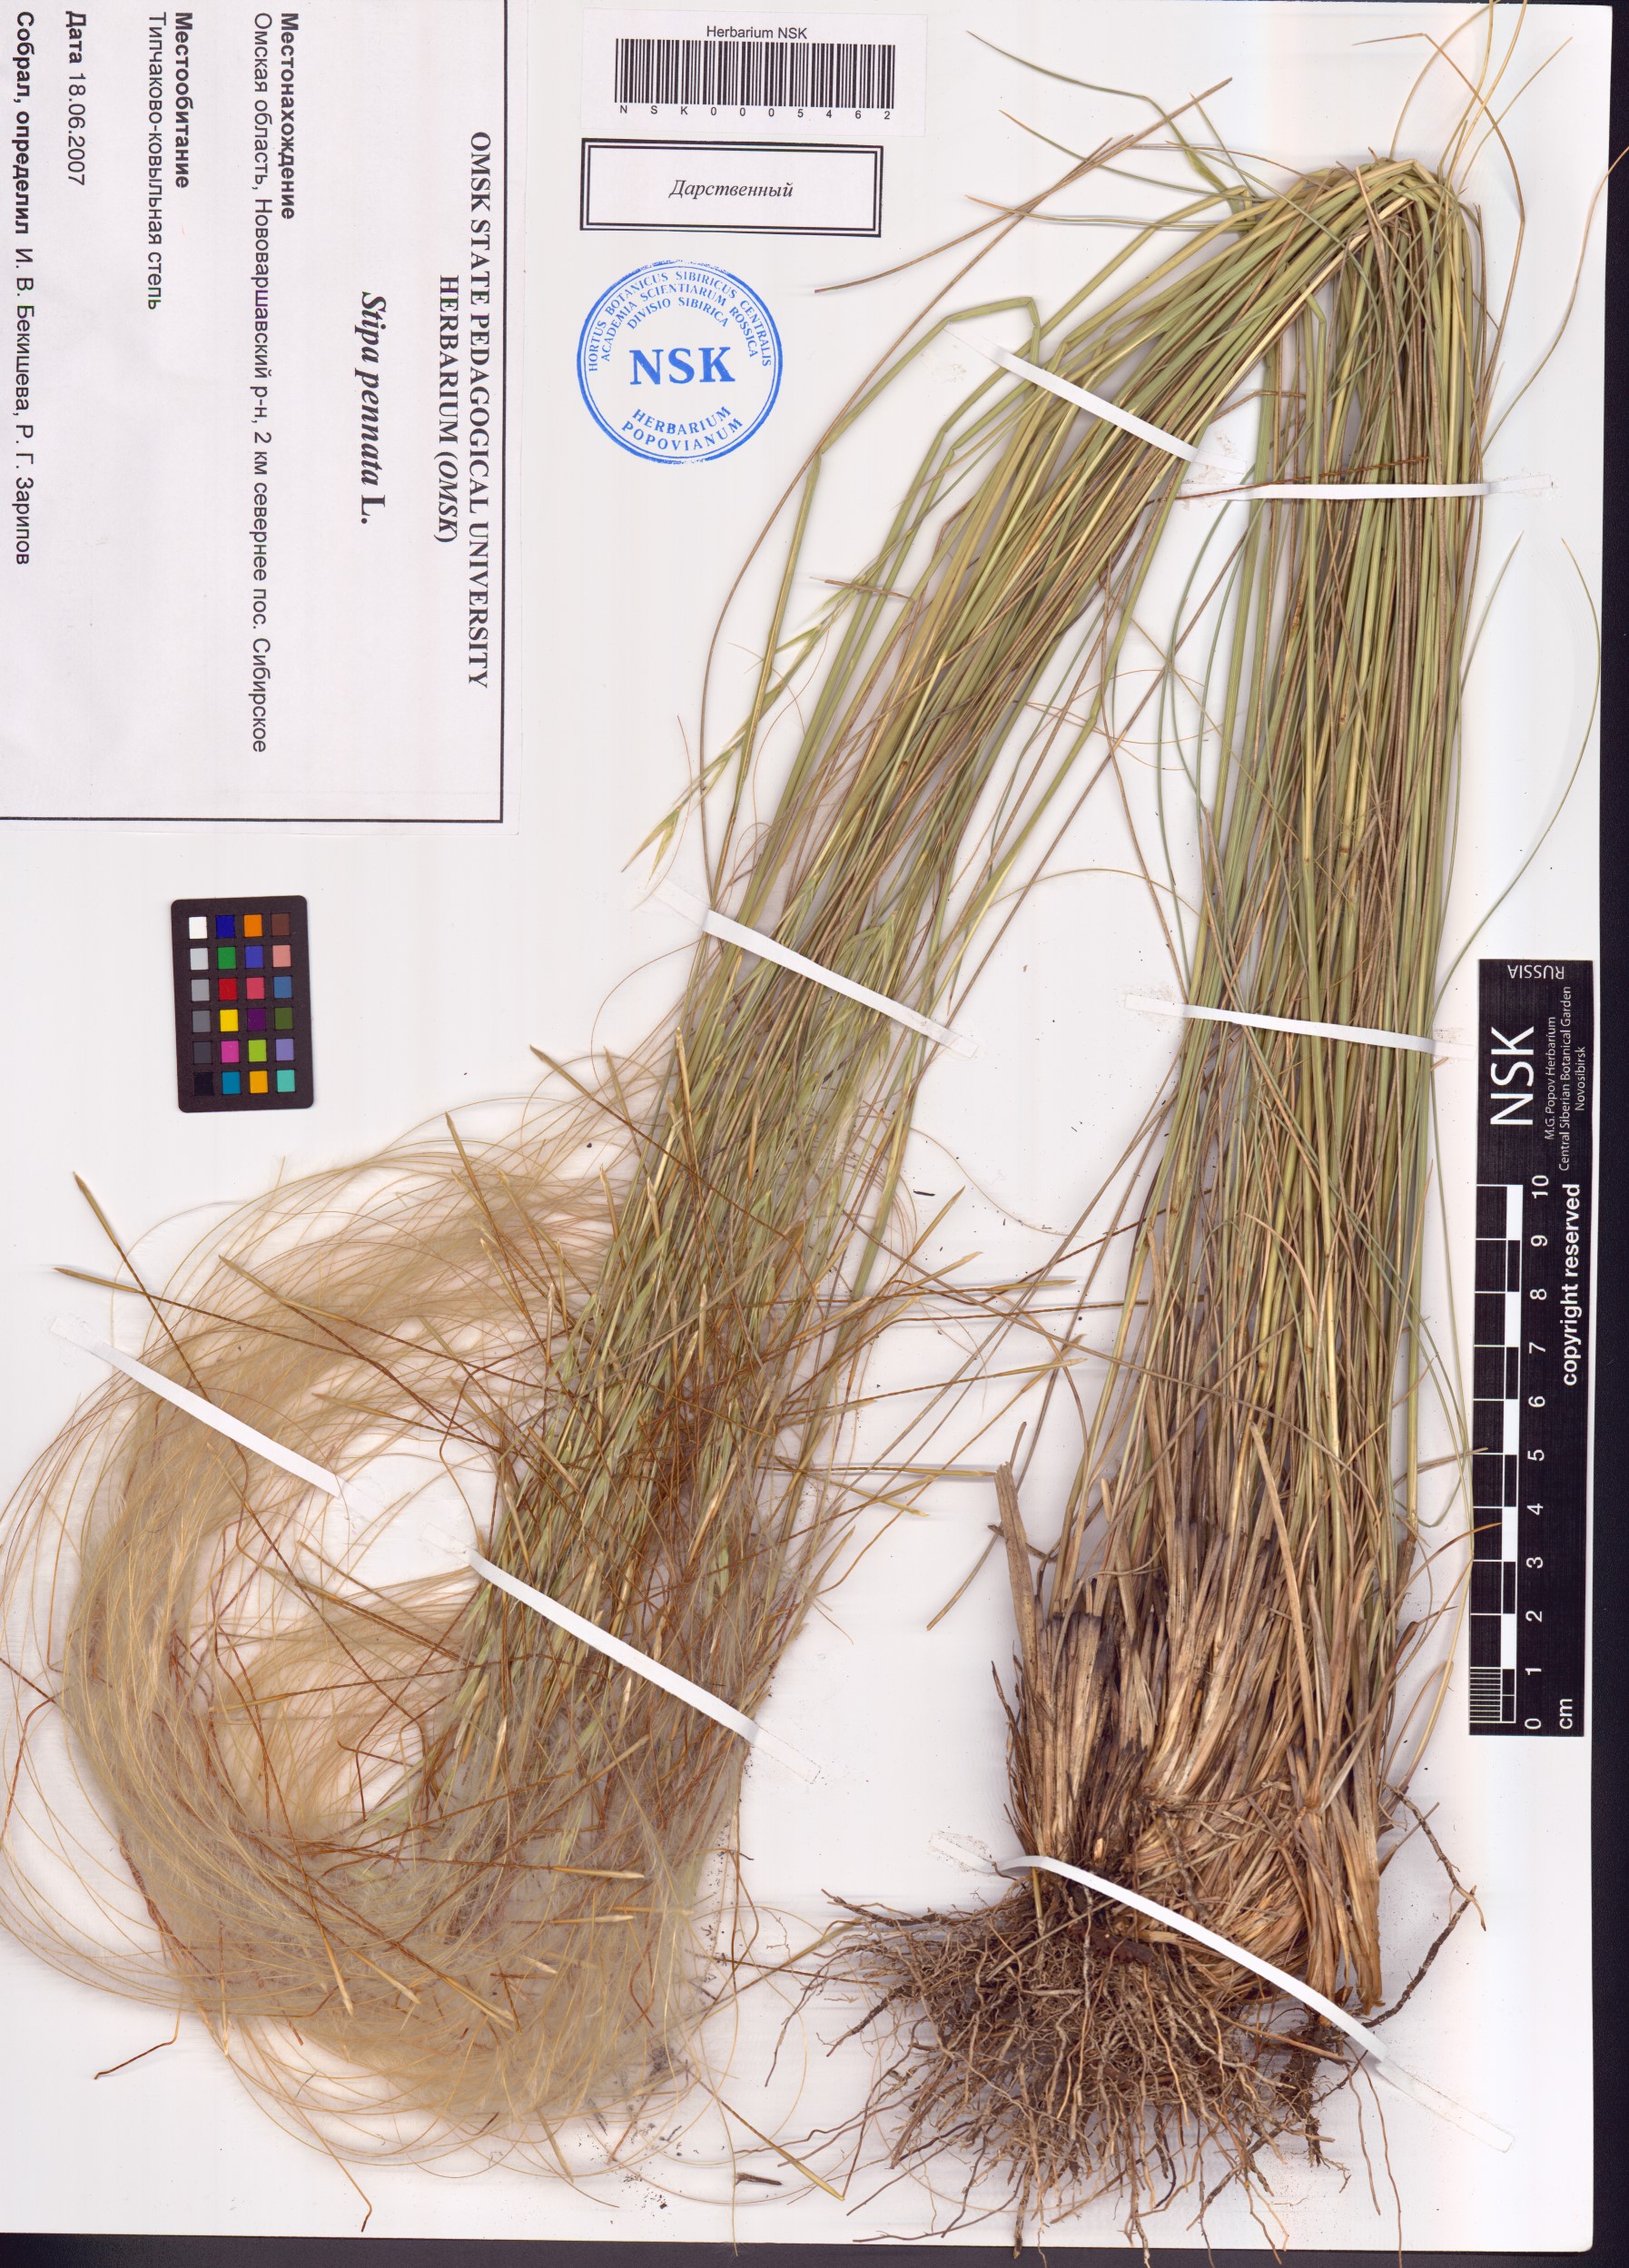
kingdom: Plantae
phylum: Tracheophyta
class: Liliopsida
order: Poales
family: Poaceae
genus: Stipa
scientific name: Stipa pennata
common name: European feather grass
